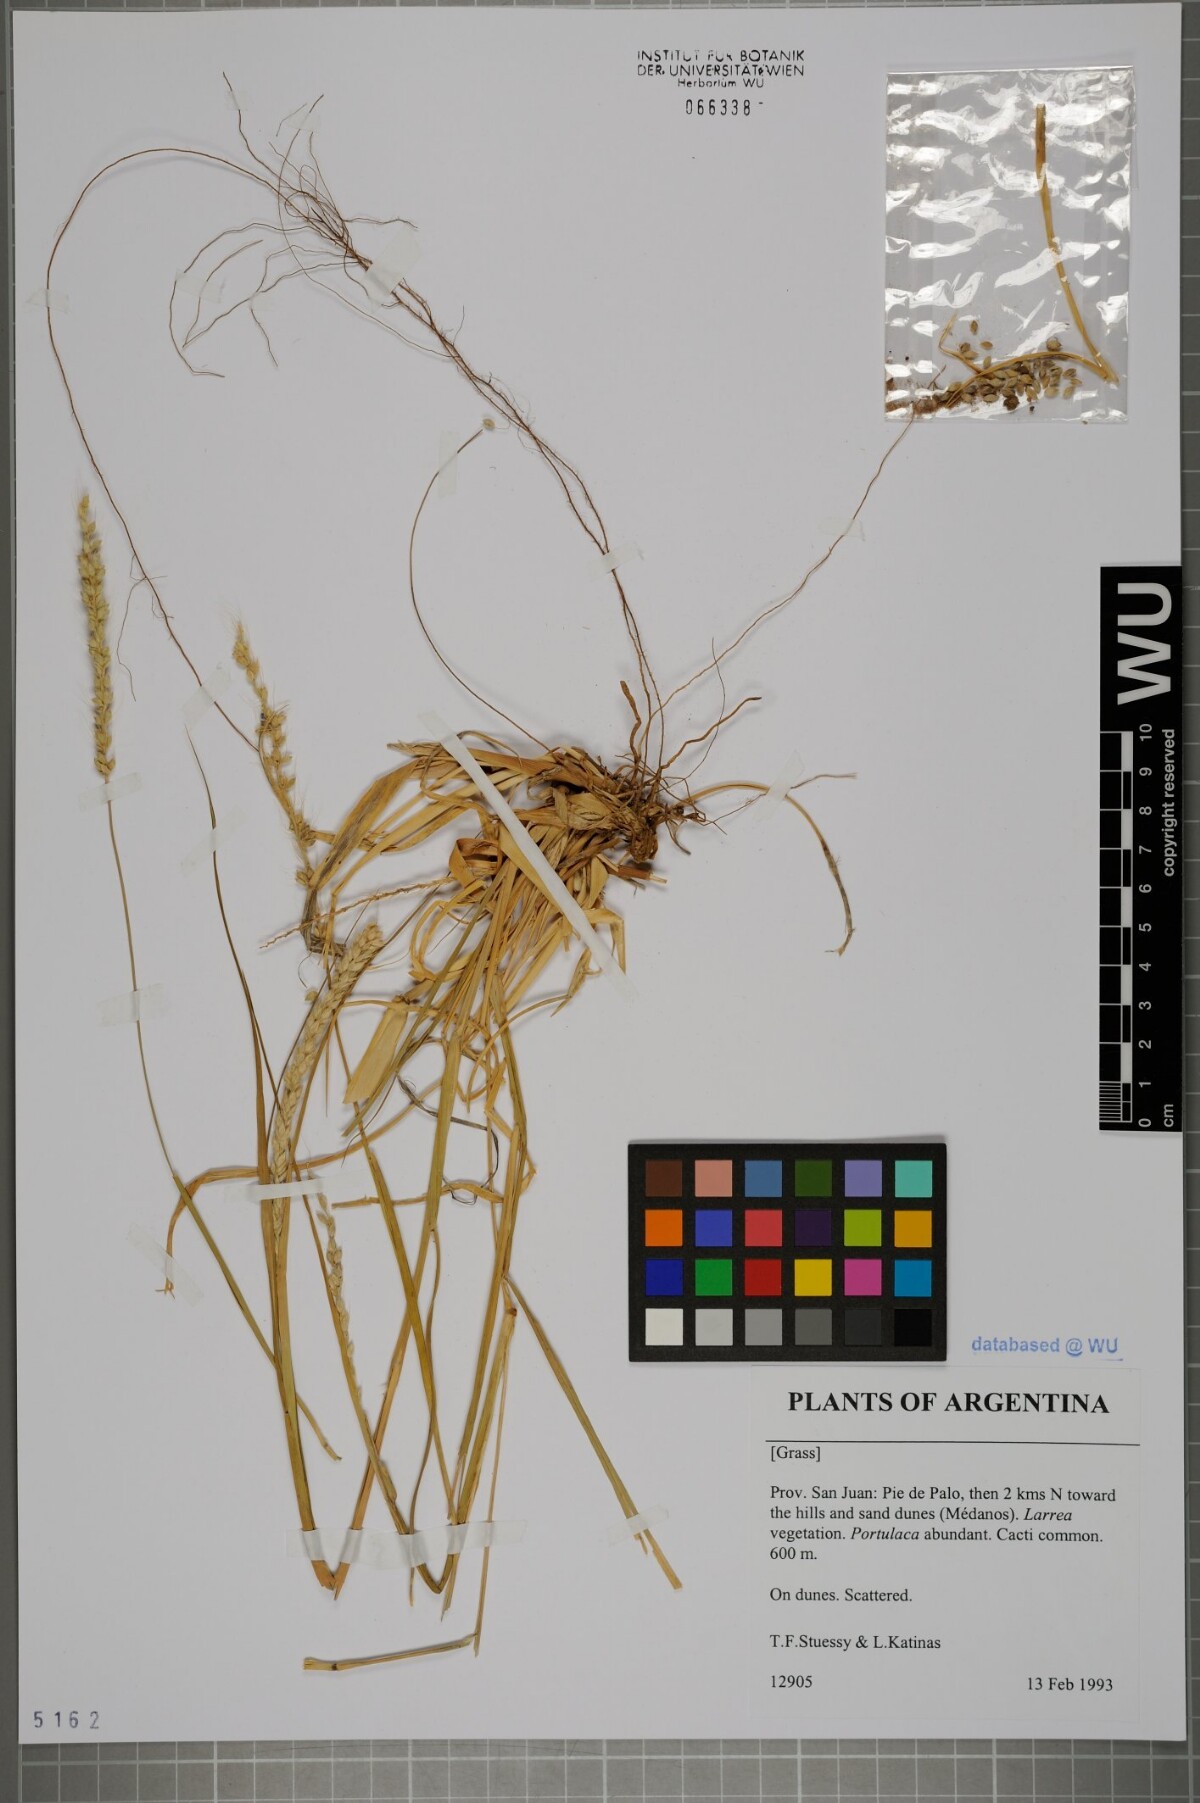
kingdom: Plantae
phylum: Tracheophyta
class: Liliopsida
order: Poales
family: Poaceae
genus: Setaria
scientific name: Setaria
